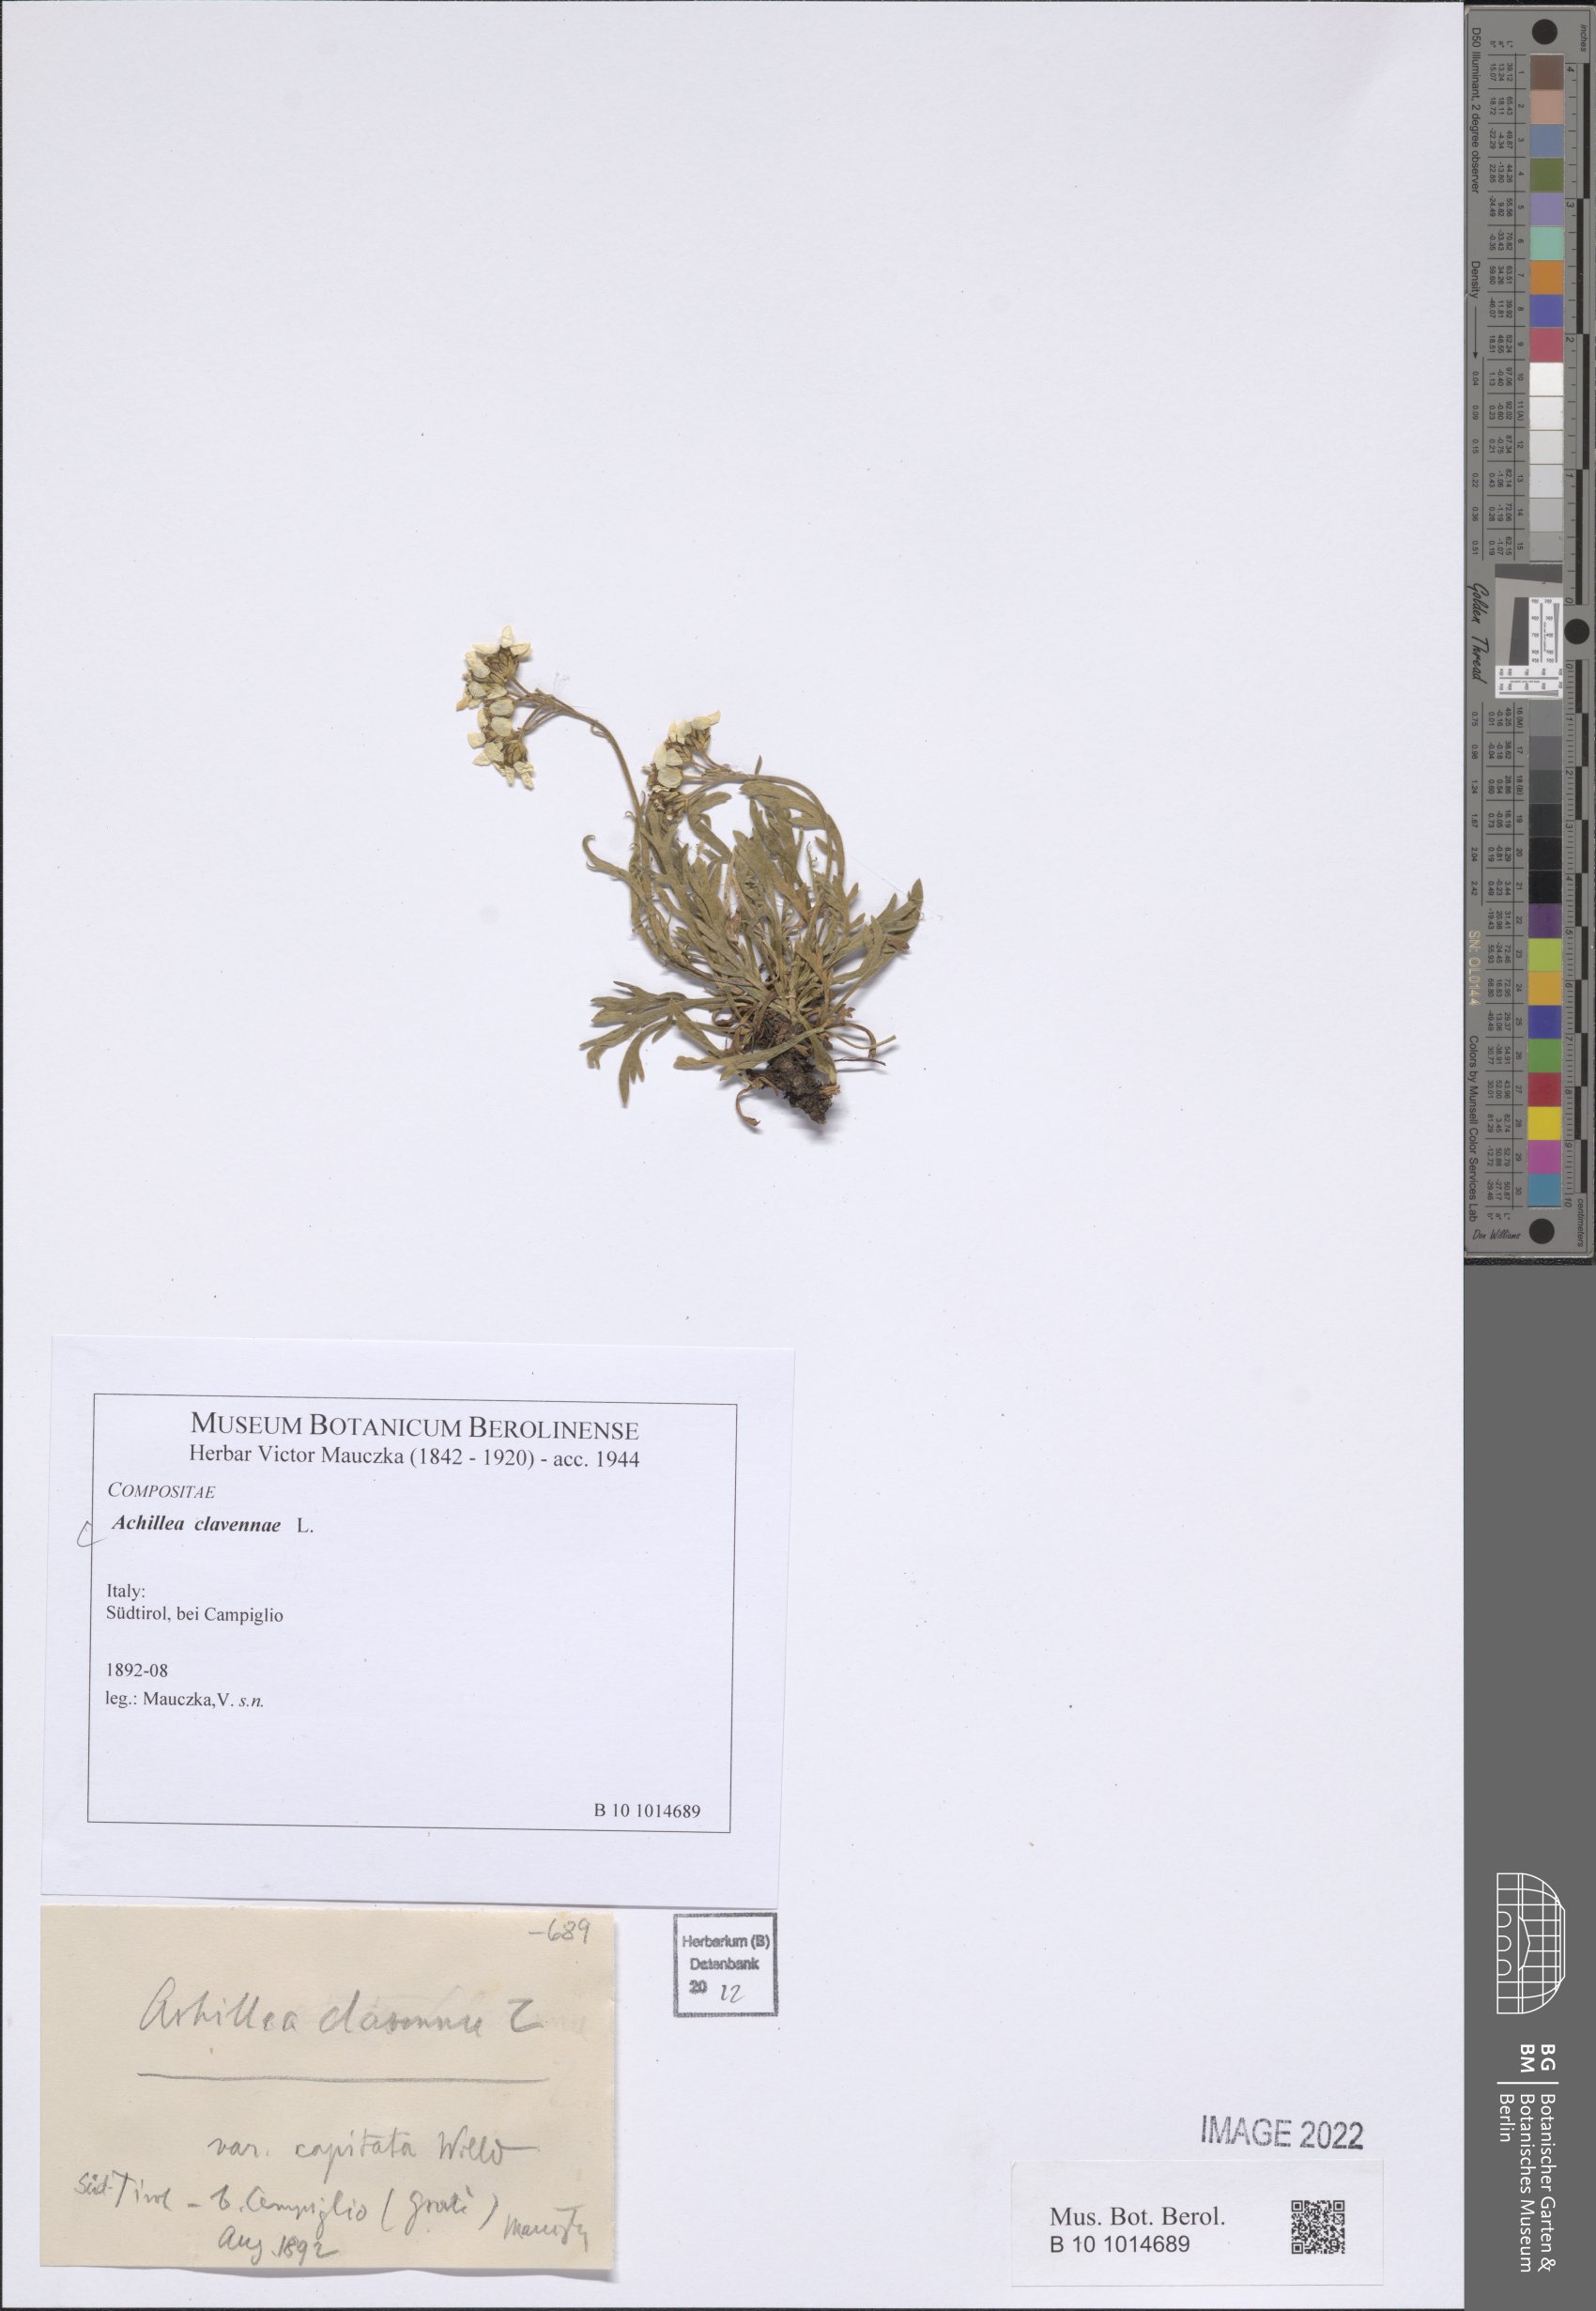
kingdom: Plantae
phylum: Tracheophyta
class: Magnoliopsida
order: Asterales
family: Asteraceae
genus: Achillea
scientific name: Achillea clavennae
